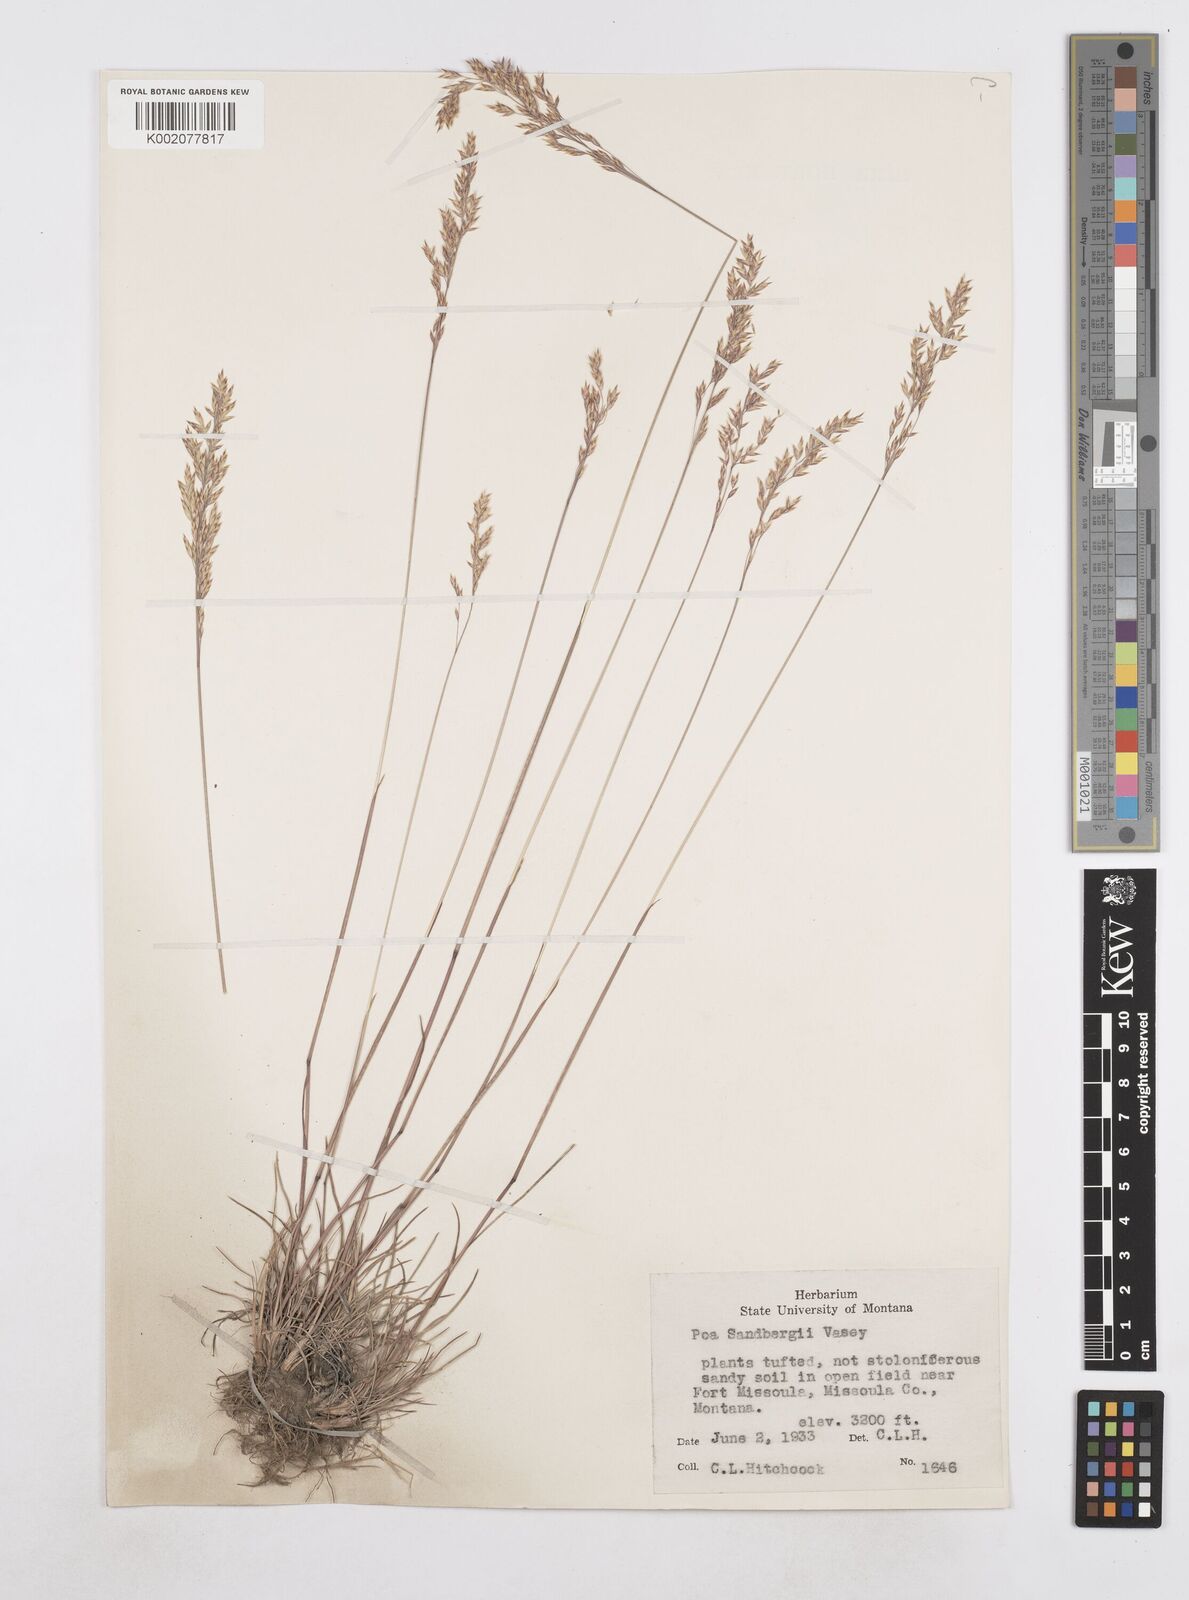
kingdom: Plantae
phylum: Tracheophyta
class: Liliopsida
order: Poales
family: Poaceae
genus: Poa
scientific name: Poa secunda
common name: Sandberg bluegrass
